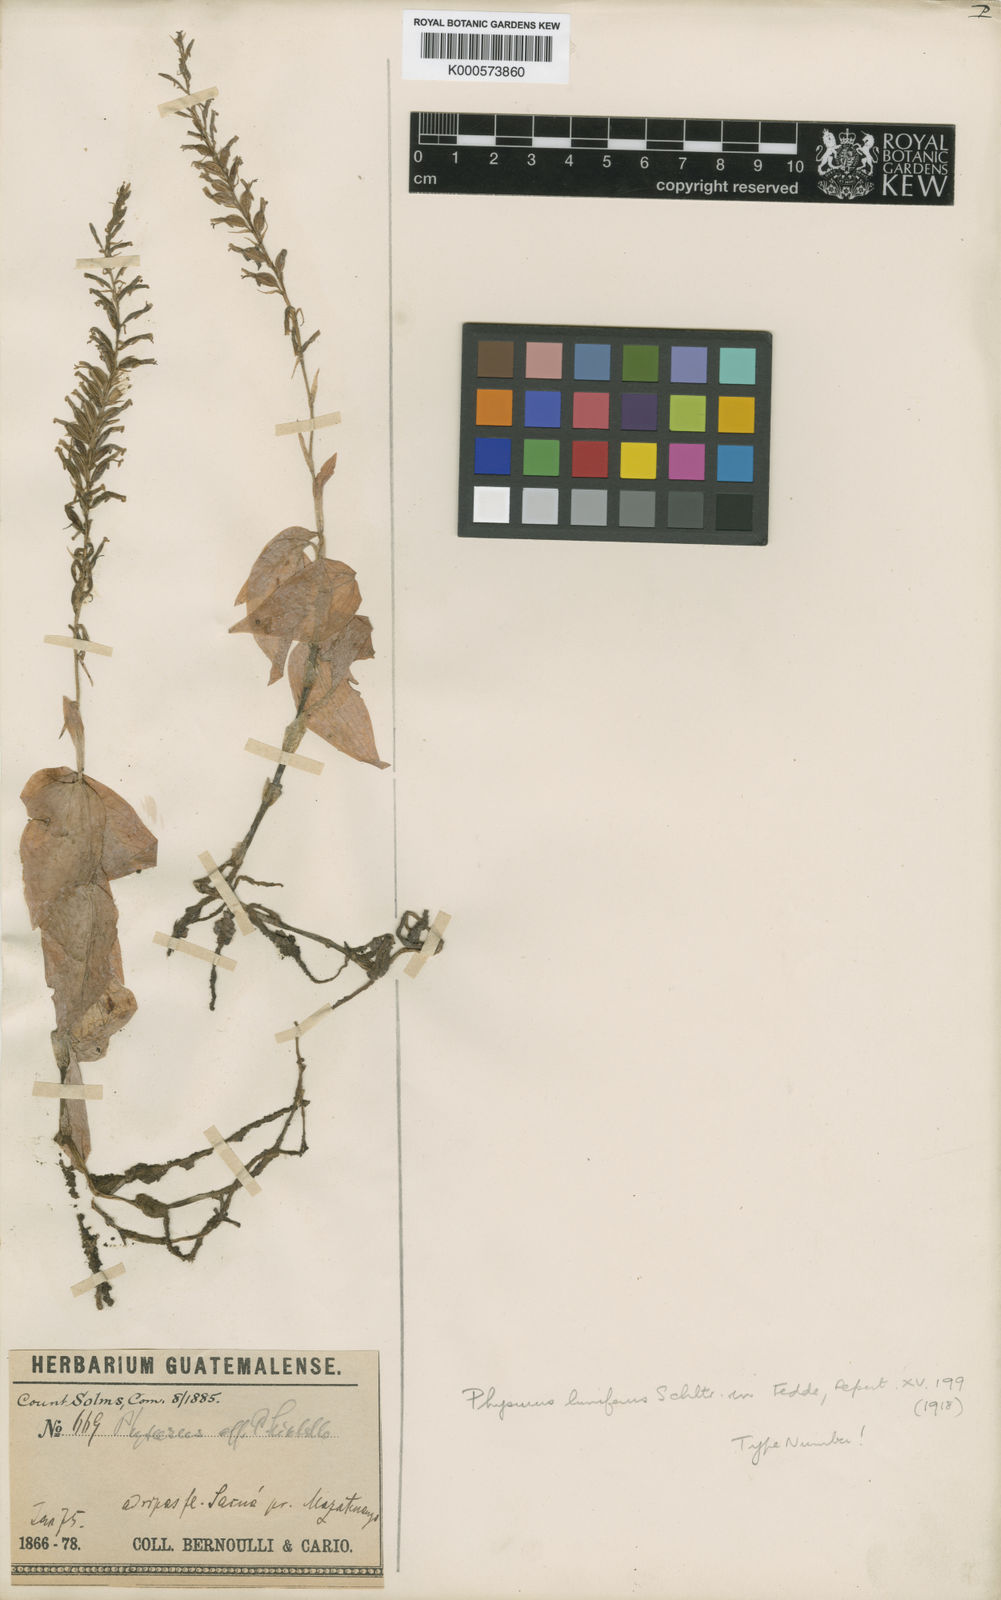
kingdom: Plantae
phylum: Tracheophyta
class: Liliopsida
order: Asparagales
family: Orchidaceae
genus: Microchilus
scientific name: Microchilus
